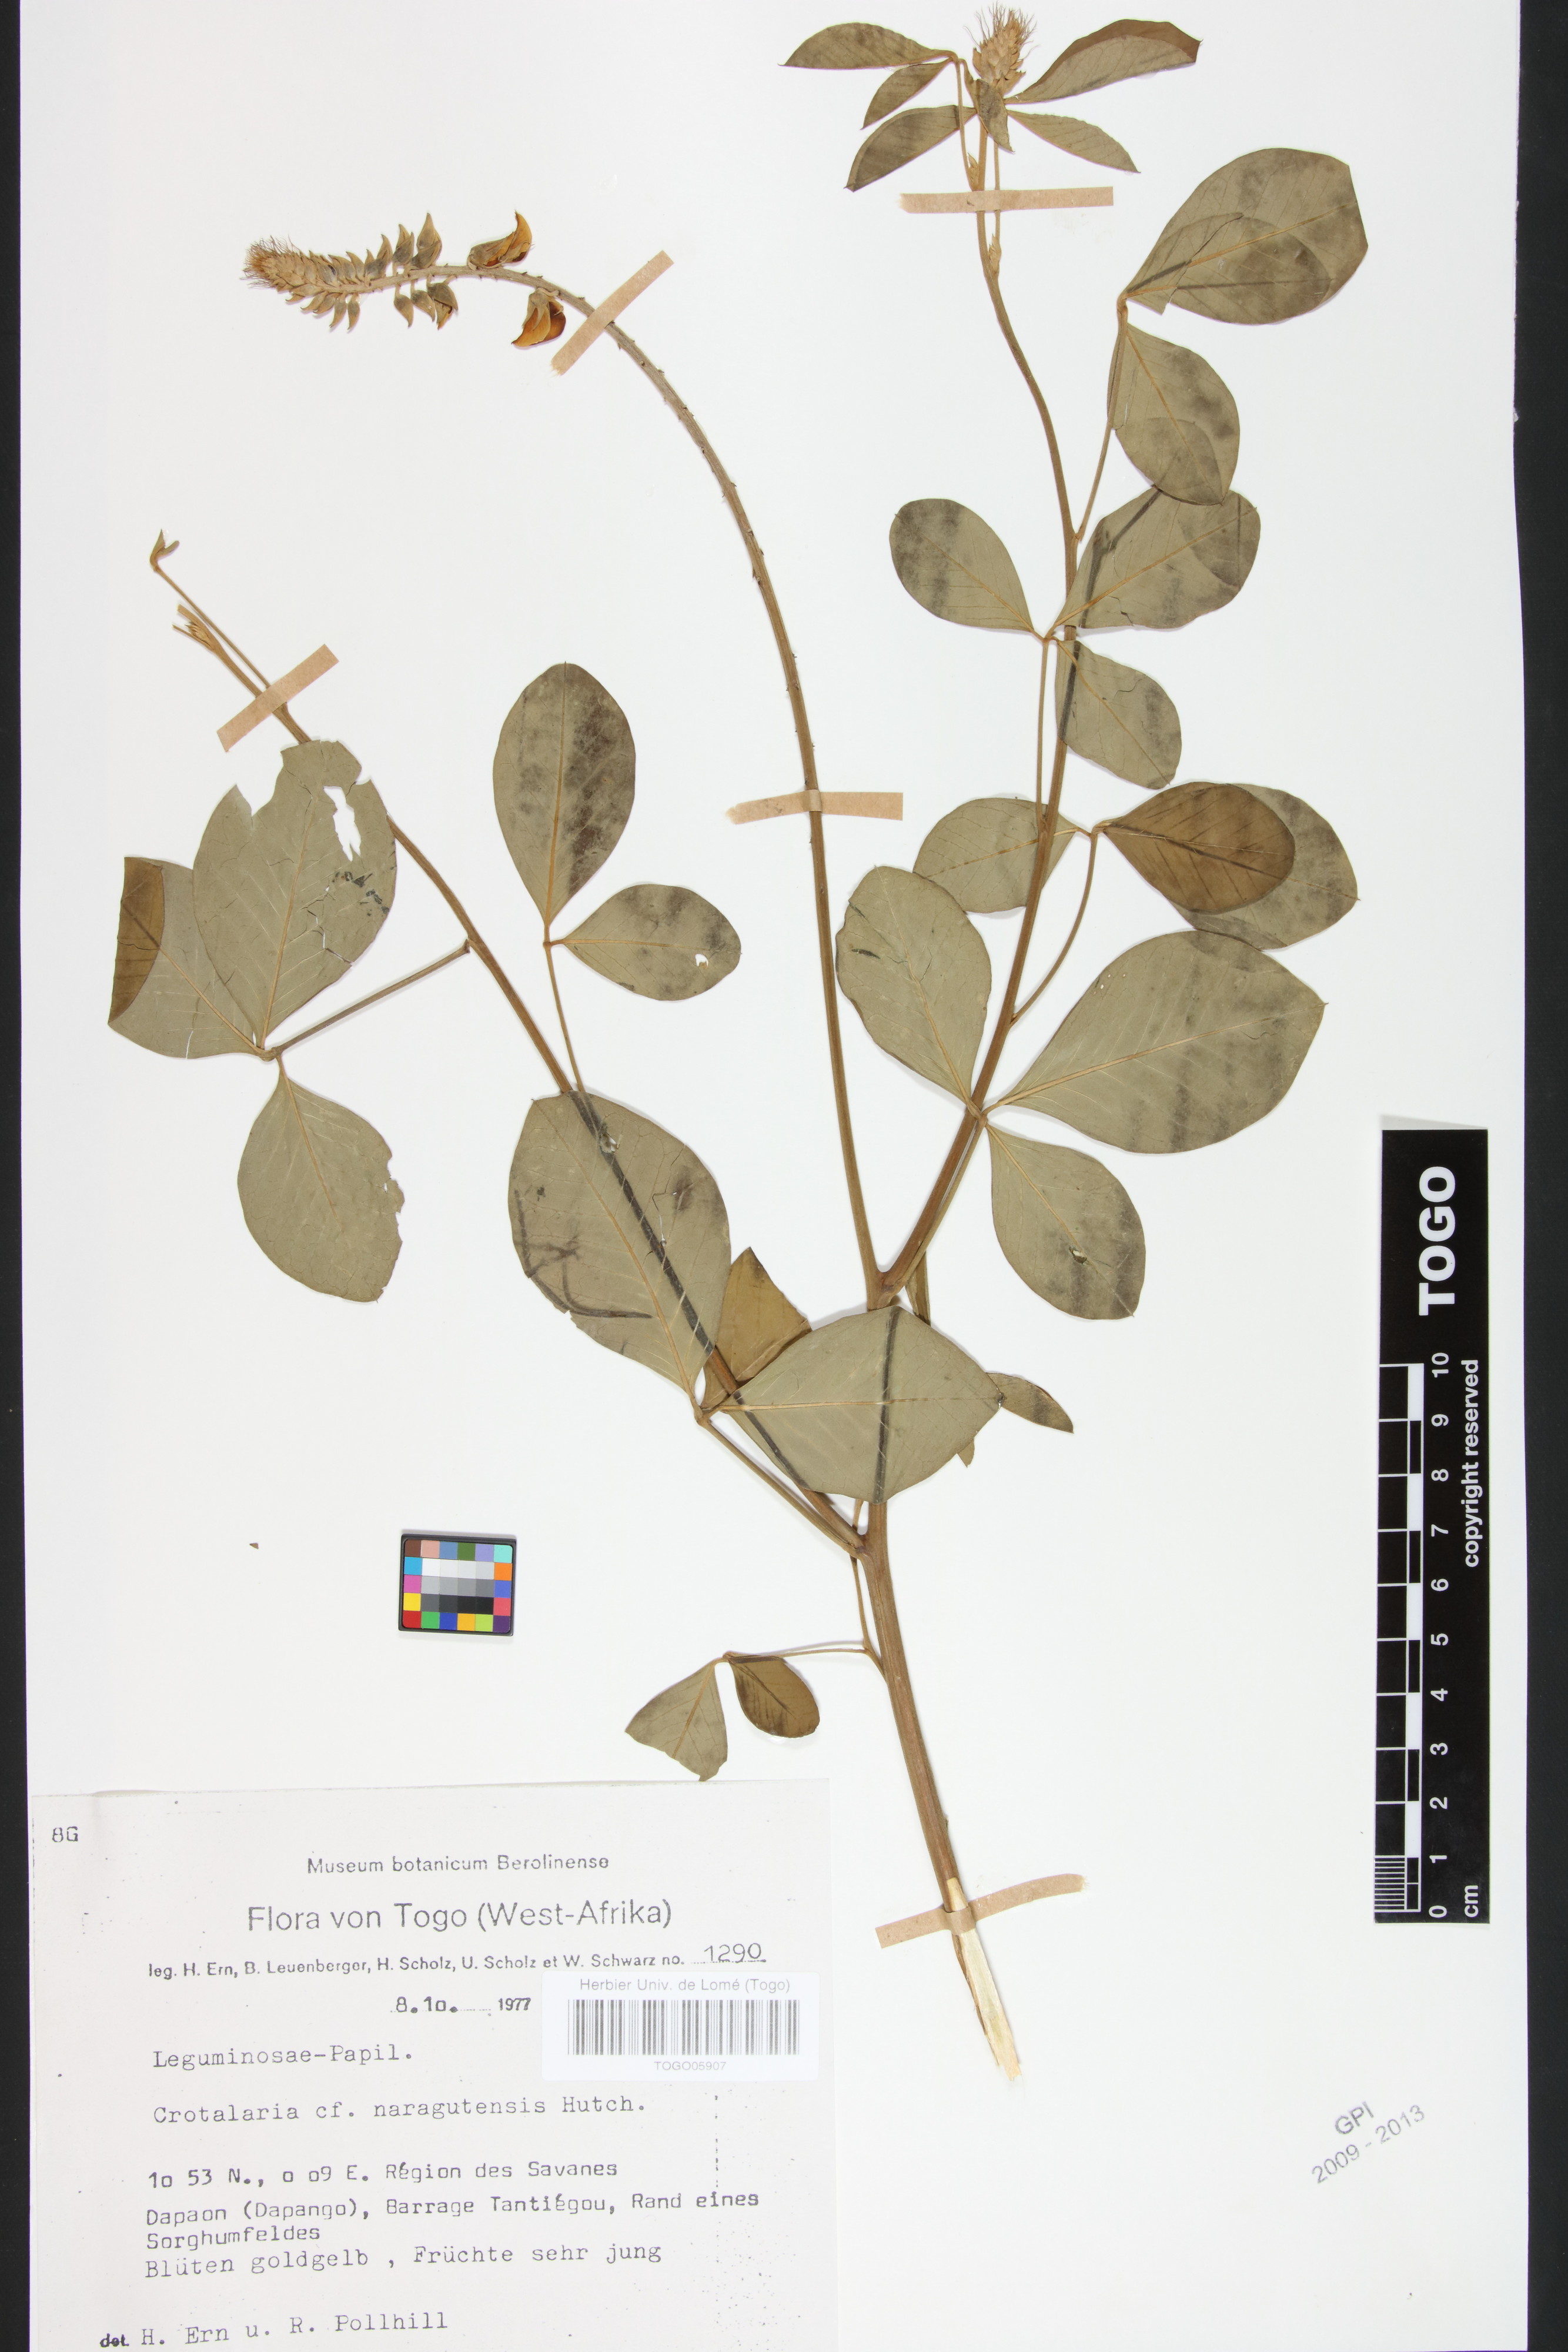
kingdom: Plantae
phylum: Tracheophyta
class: Magnoliopsida
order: Fabales
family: Fabaceae
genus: Crotalaria
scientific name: Crotalaria naragutensis
